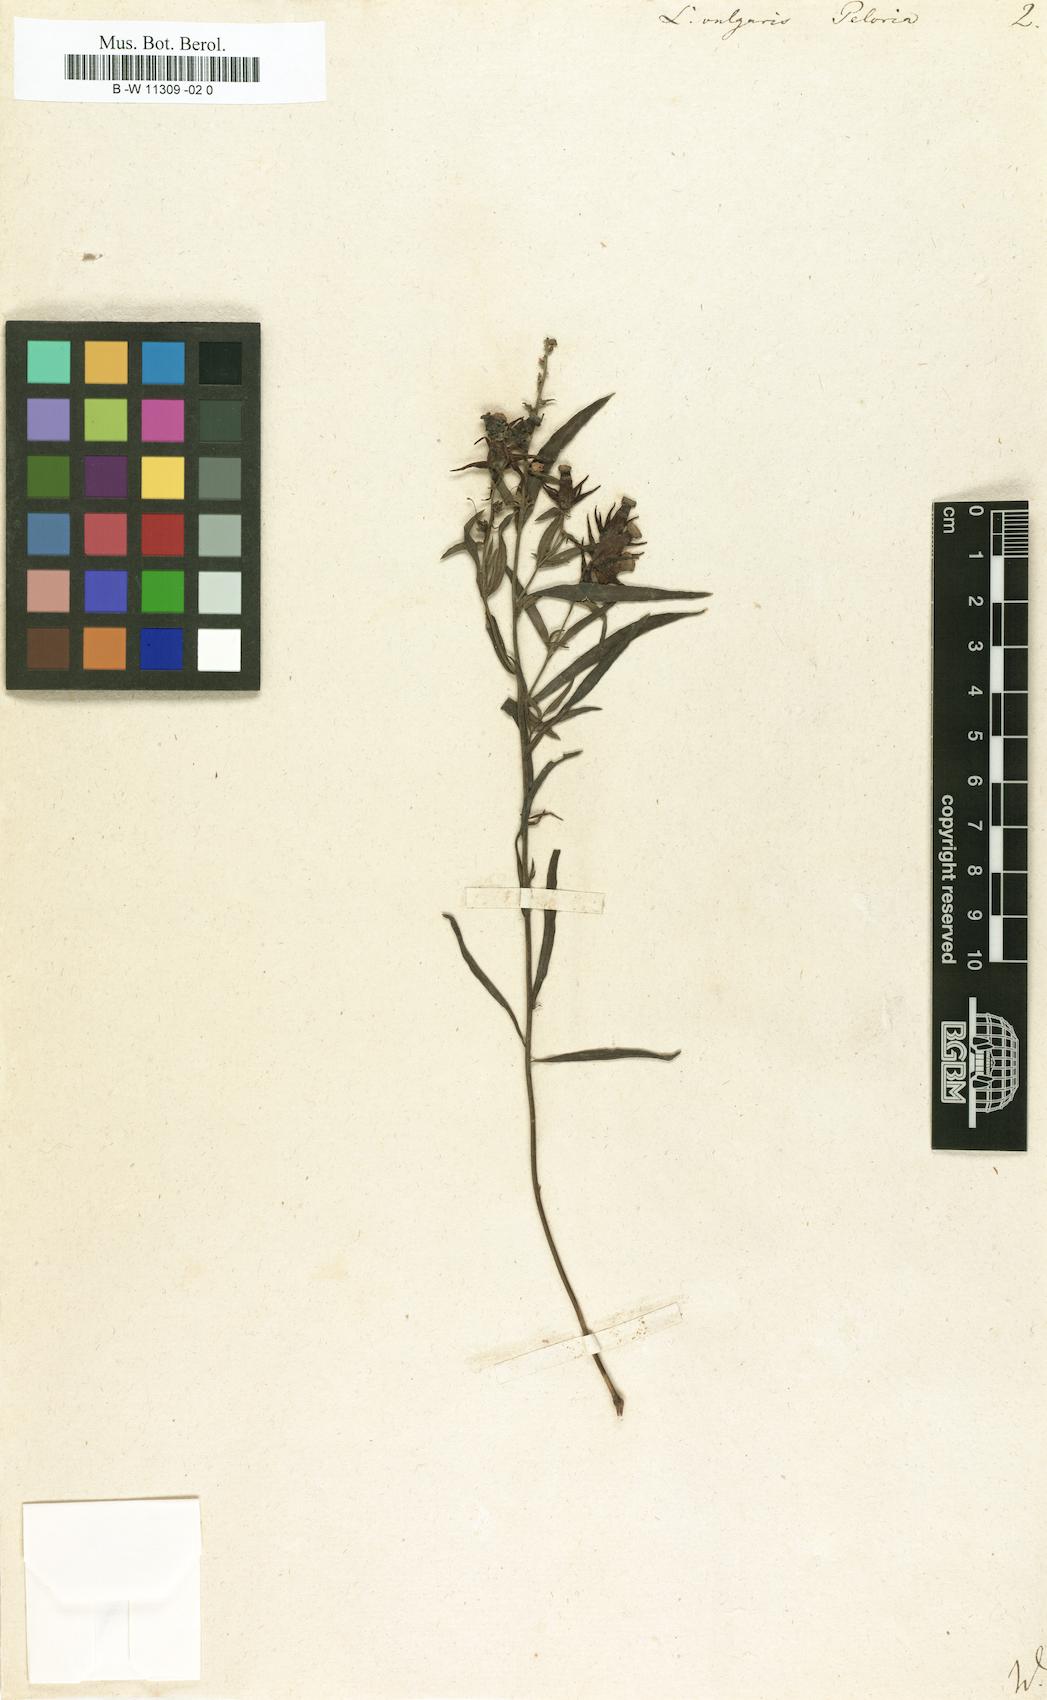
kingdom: Plantae
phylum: Tracheophyta
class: Magnoliopsida
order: Lamiales
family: Plantaginaceae
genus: Linaria
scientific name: Linaria vulgaris
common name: Butter and eggs
